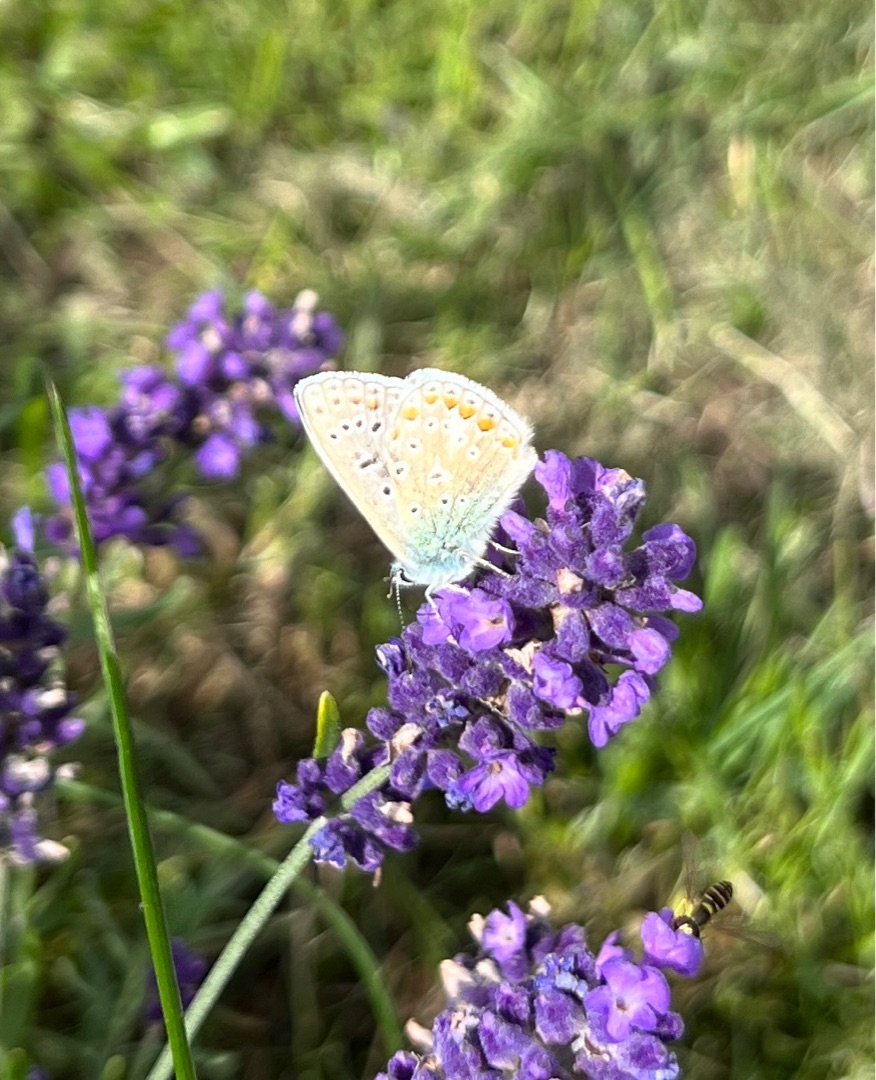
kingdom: Animalia
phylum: Arthropoda
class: Insecta
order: Lepidoptera
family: Lycaenidae
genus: Polyommatus
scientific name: Polyommatus icarus
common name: Almindelig blåfugl
